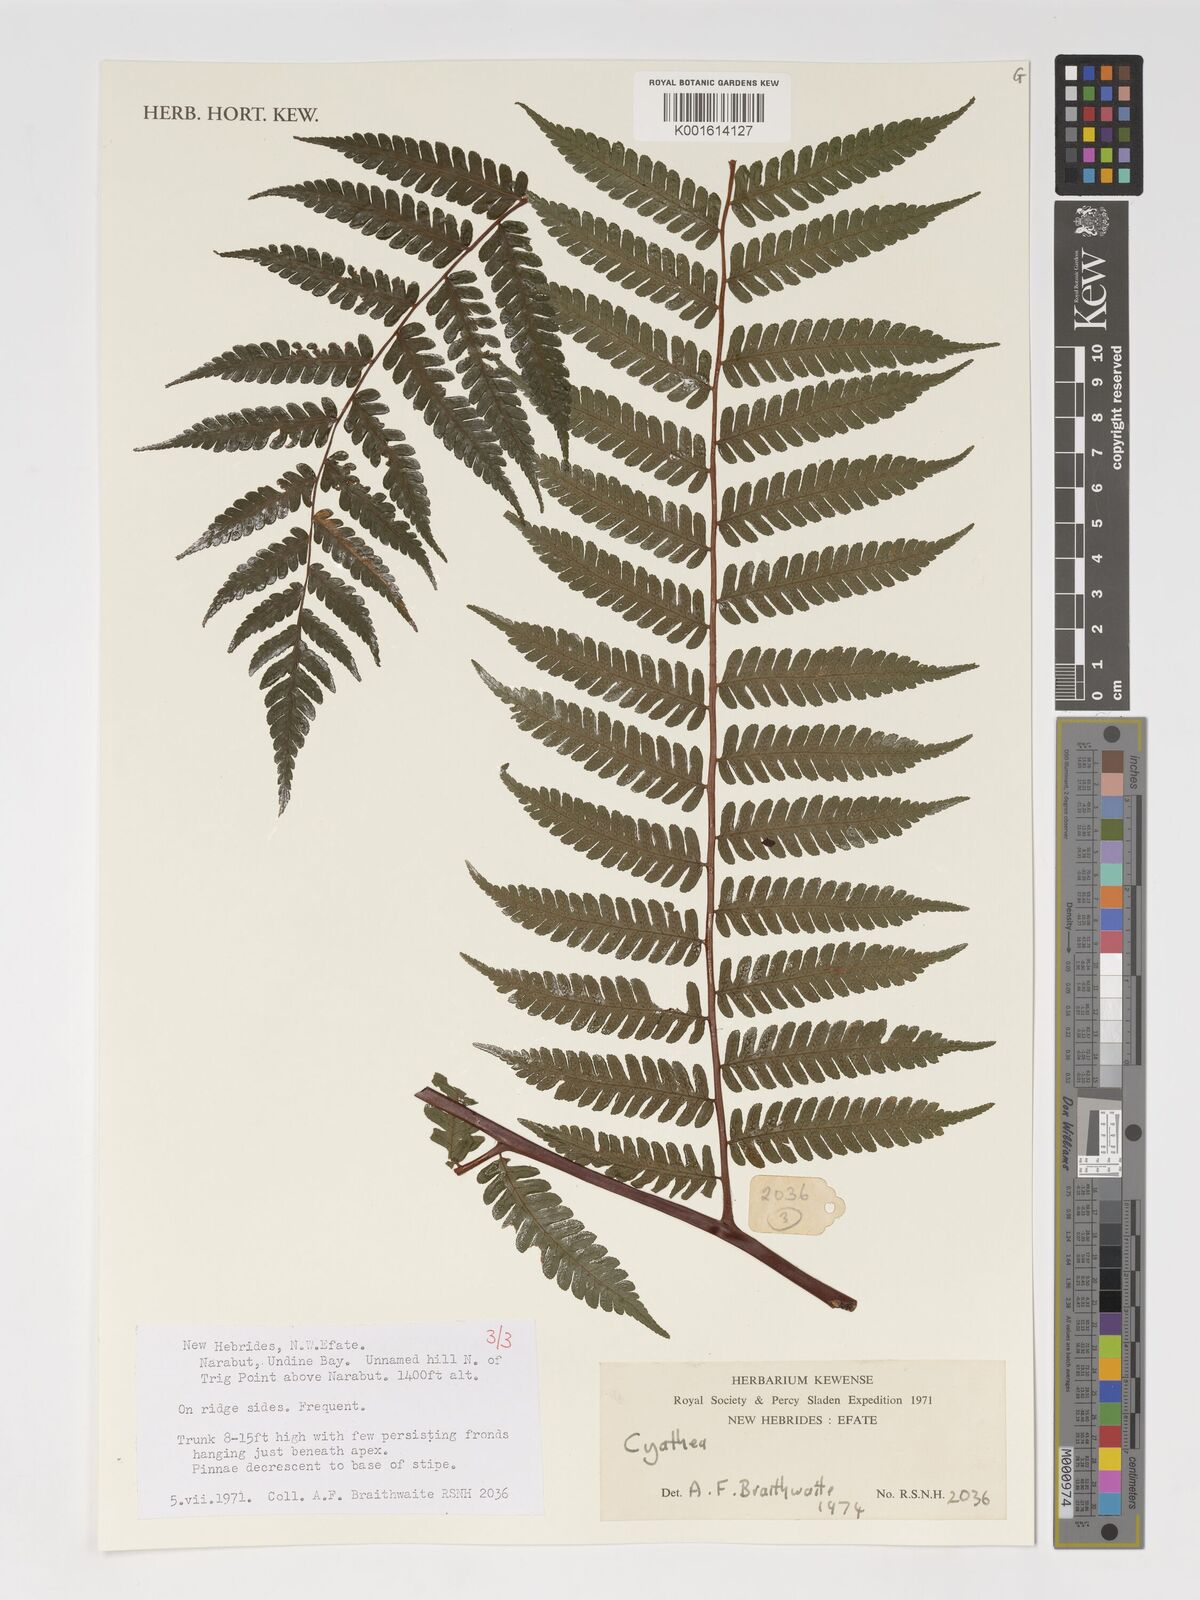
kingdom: Plantae
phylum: Tracheophyta
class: Polypodiopsida
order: Cyatheales
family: Cyatheaceae
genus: Cyathea
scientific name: Cyathea
